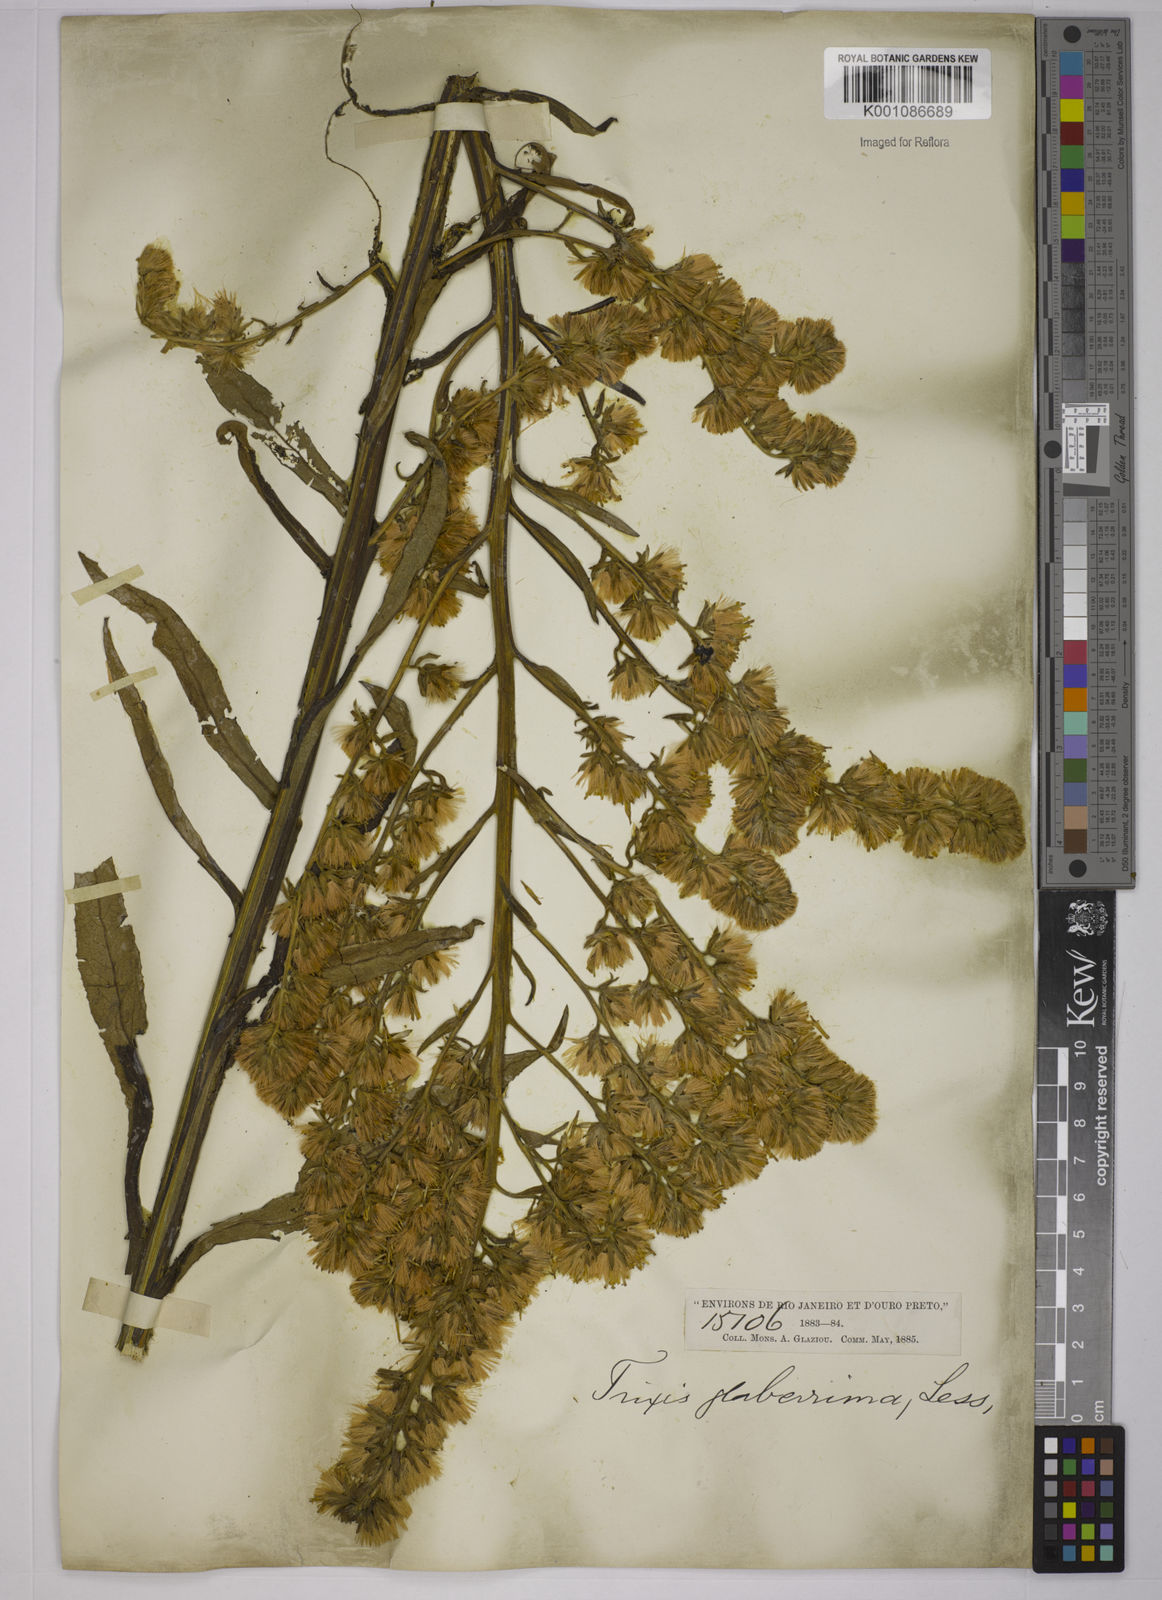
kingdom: Plantae
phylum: Tracheophyta
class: Magnoliopsida
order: Asterales
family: Asteraceae
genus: Trixis
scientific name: Trixis nobilis
